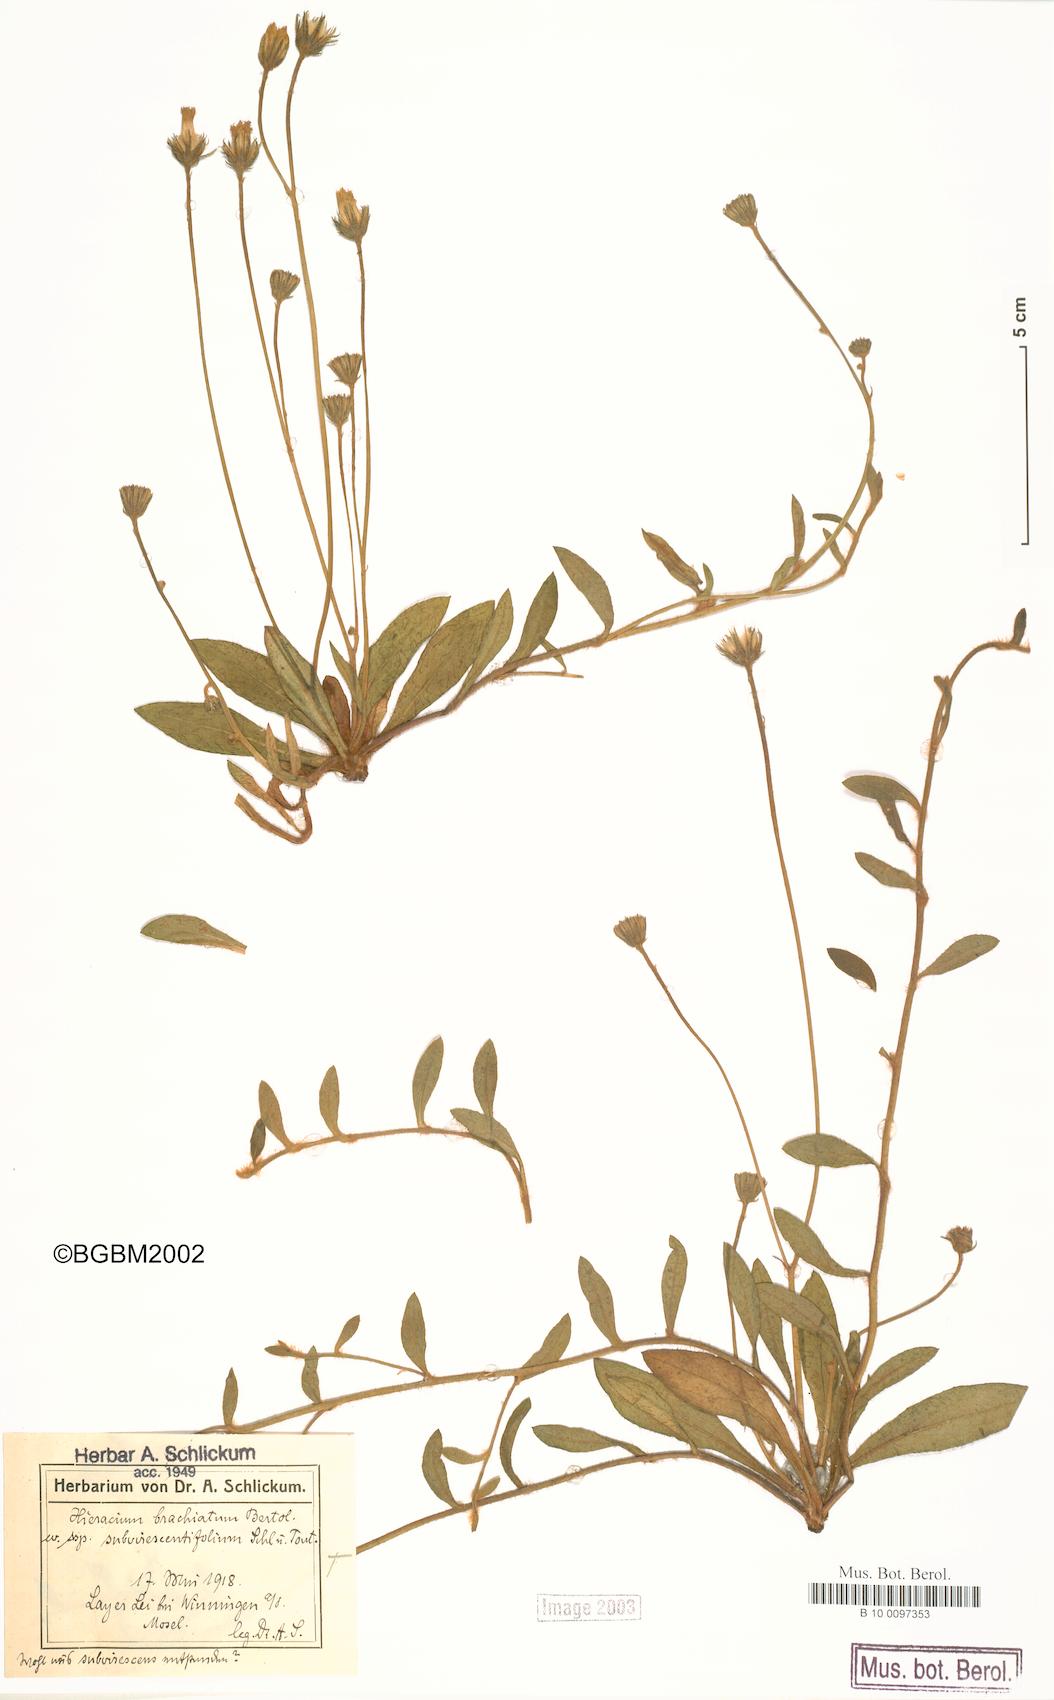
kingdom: Plantae
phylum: Tracheophyta
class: Magnoliopsida
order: Asterales
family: Asteraceae
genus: Pilosella
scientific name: Pilosella acutifolia
